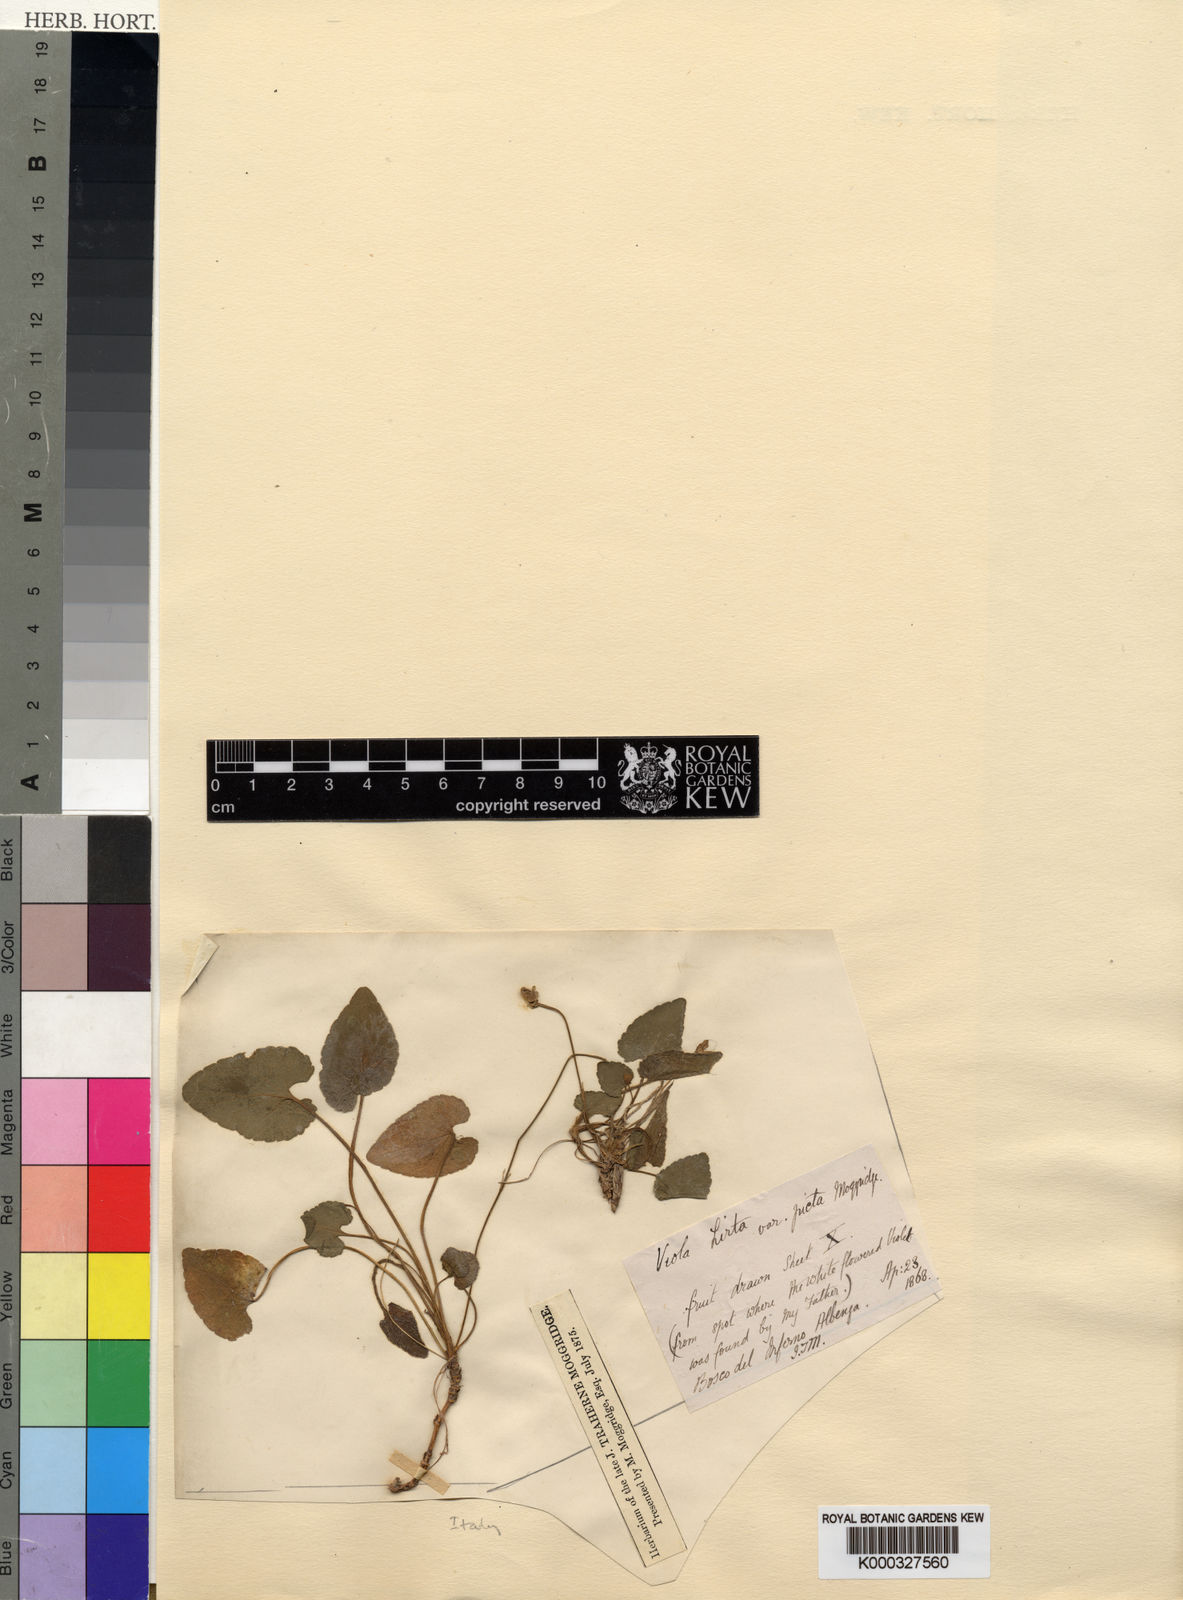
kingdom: Plantae
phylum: Tracheophyta
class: Magnoliopsida
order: Malpighiales
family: Violaceae
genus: Viola
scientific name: Viola alba
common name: White violet
